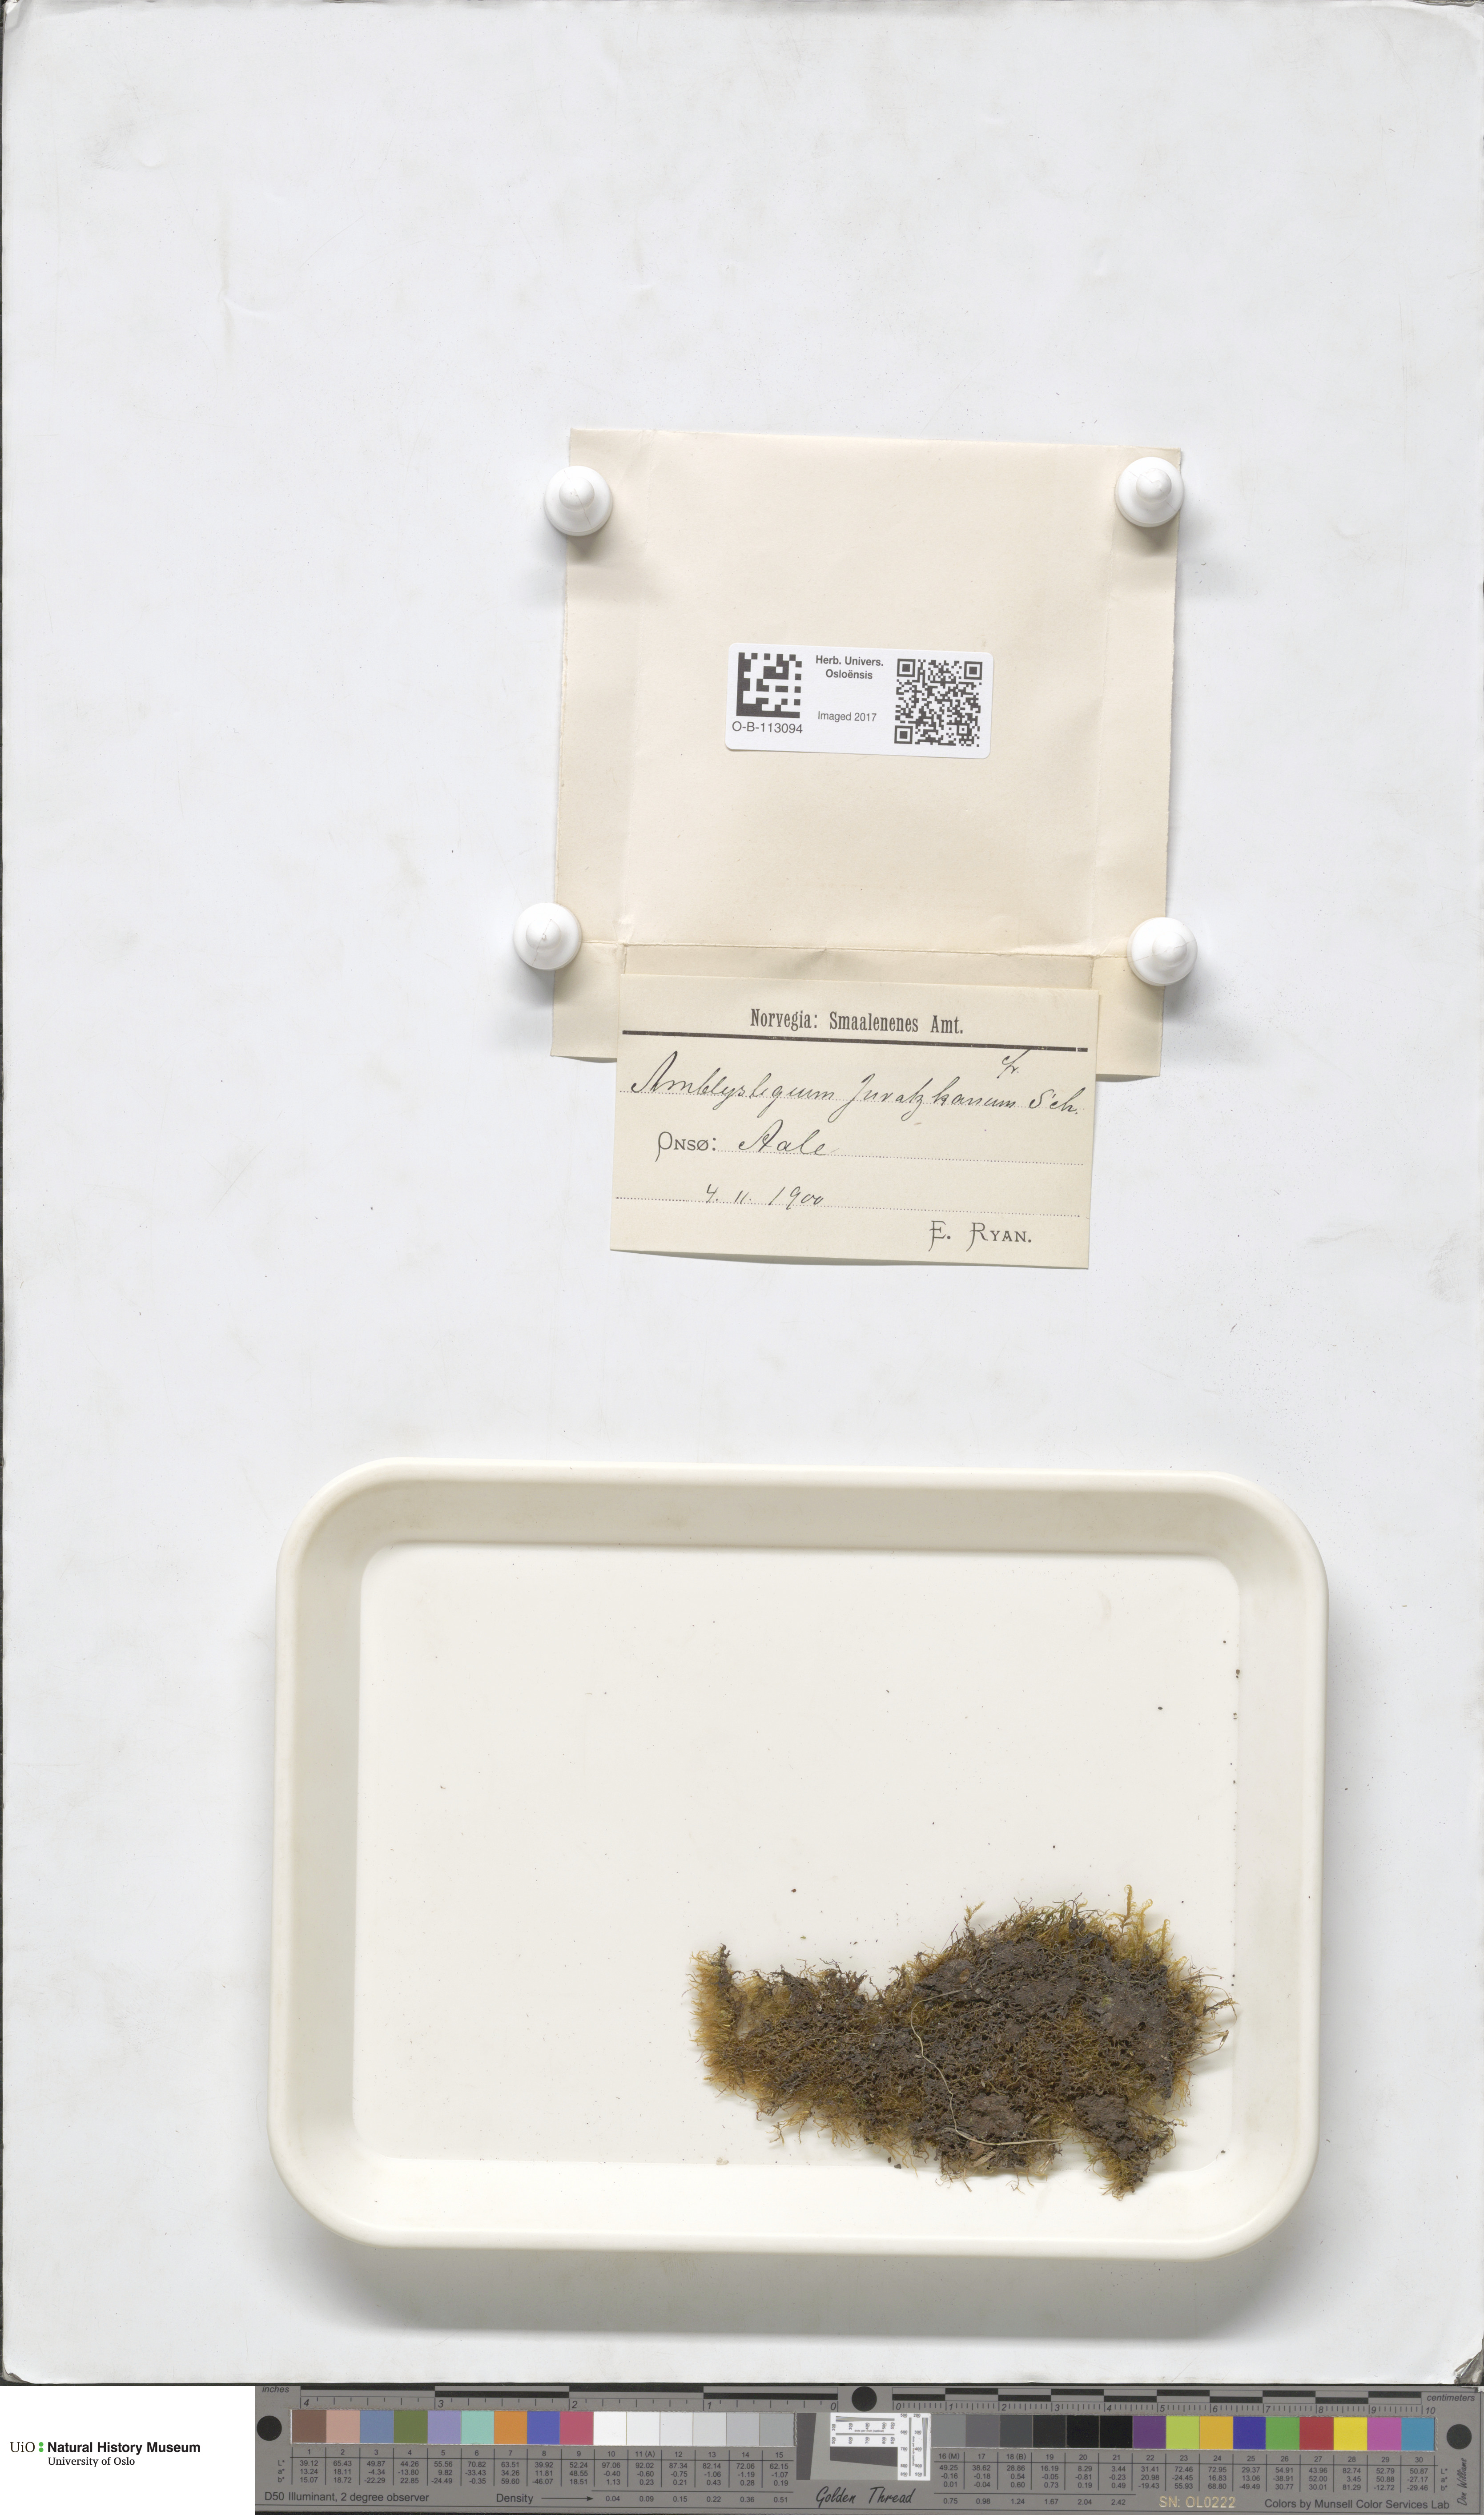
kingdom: Plantae
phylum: Bryophyta
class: Bryopsida
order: Hypnales
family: Amblystegiaceae
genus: Amblystegium
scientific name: Amblystegium serpens
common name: Jurkatzka's feather moss
